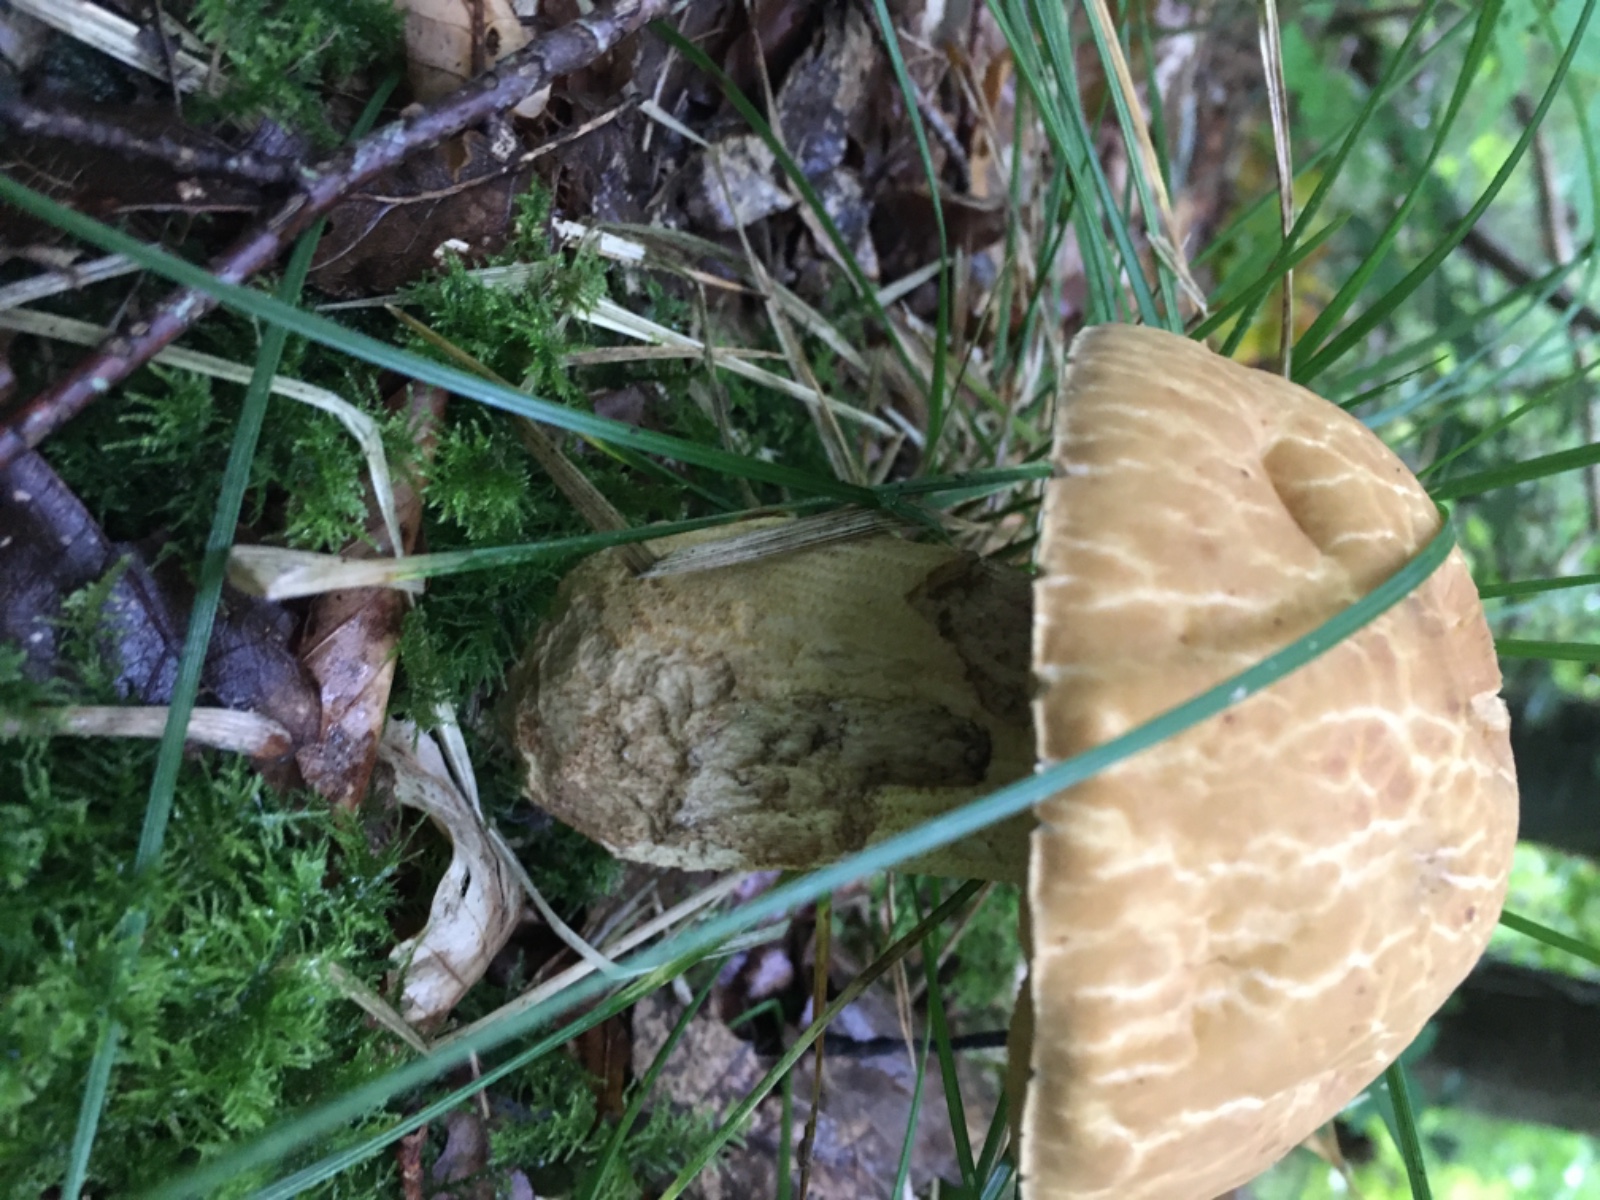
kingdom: Fungi
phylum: Basidiomycota
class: Agaricomycetes
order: Boletales
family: Boletaceae
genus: Leccinellum
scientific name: Leccinellum crocipodium
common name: gul skælrørhat
